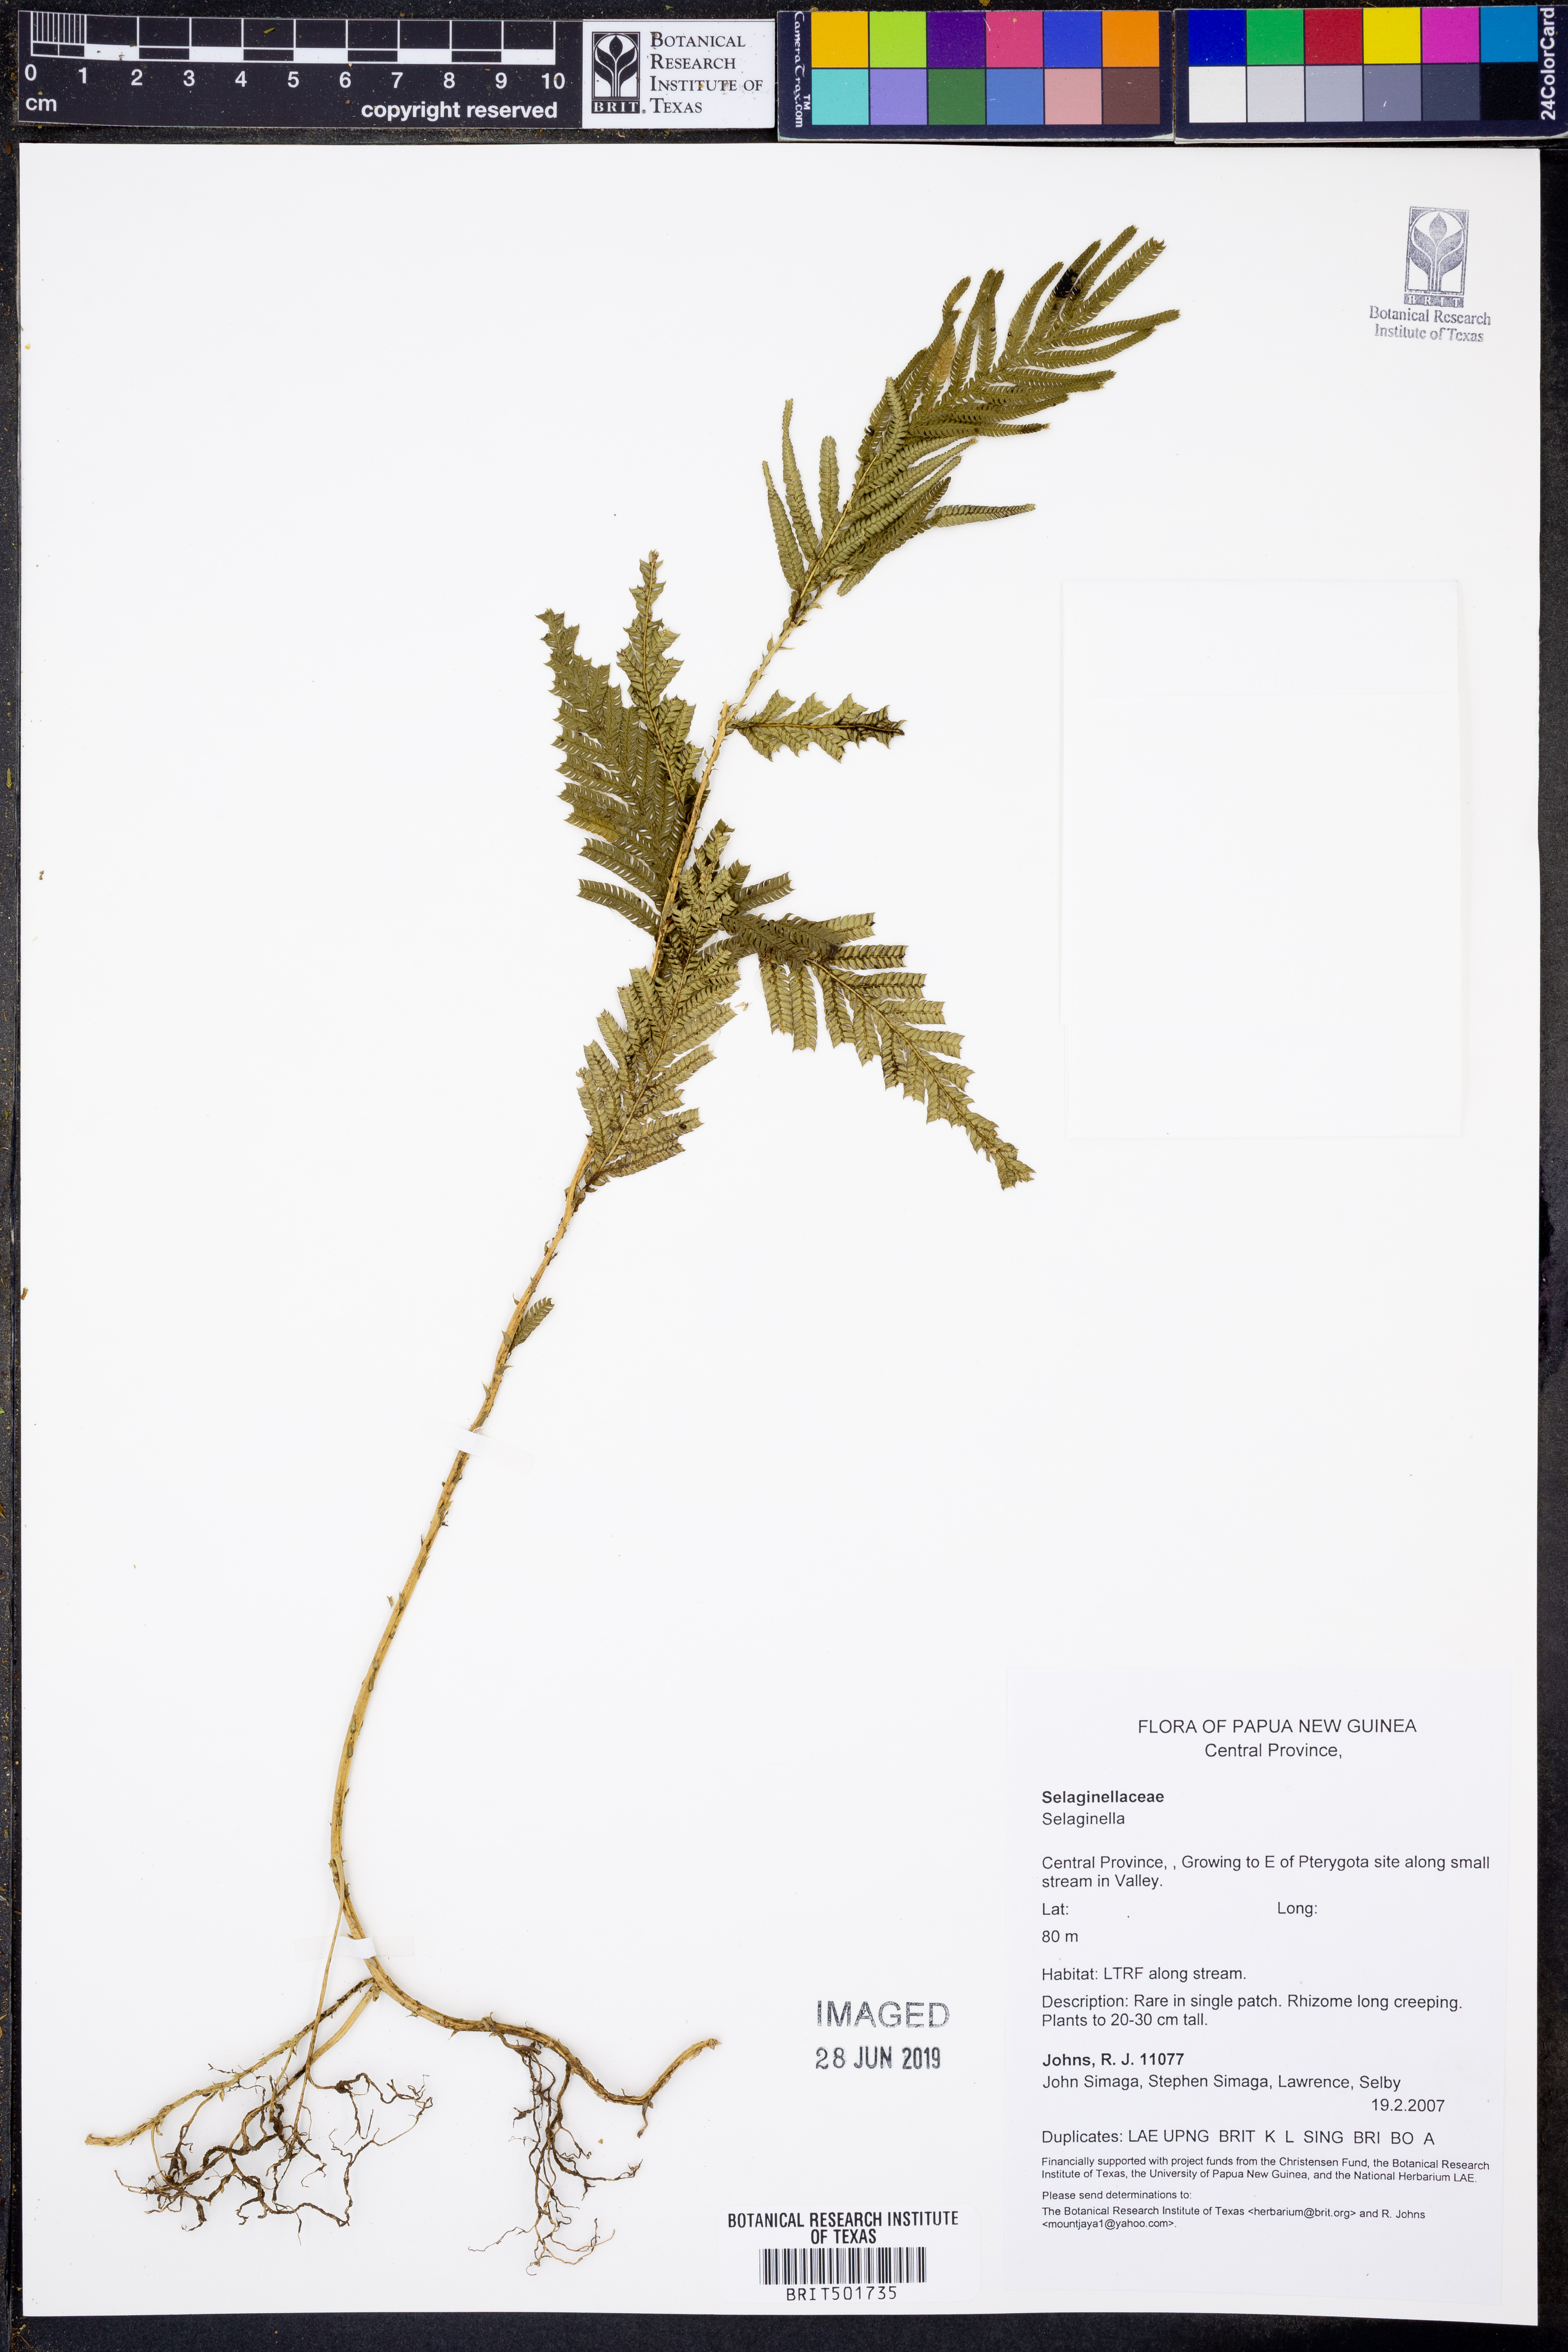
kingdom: Plantae
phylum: Tracheophyta
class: Lycopodiopsida
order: Selaginellales
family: Selaginellaceae
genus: Selaginella
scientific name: Selaginella
